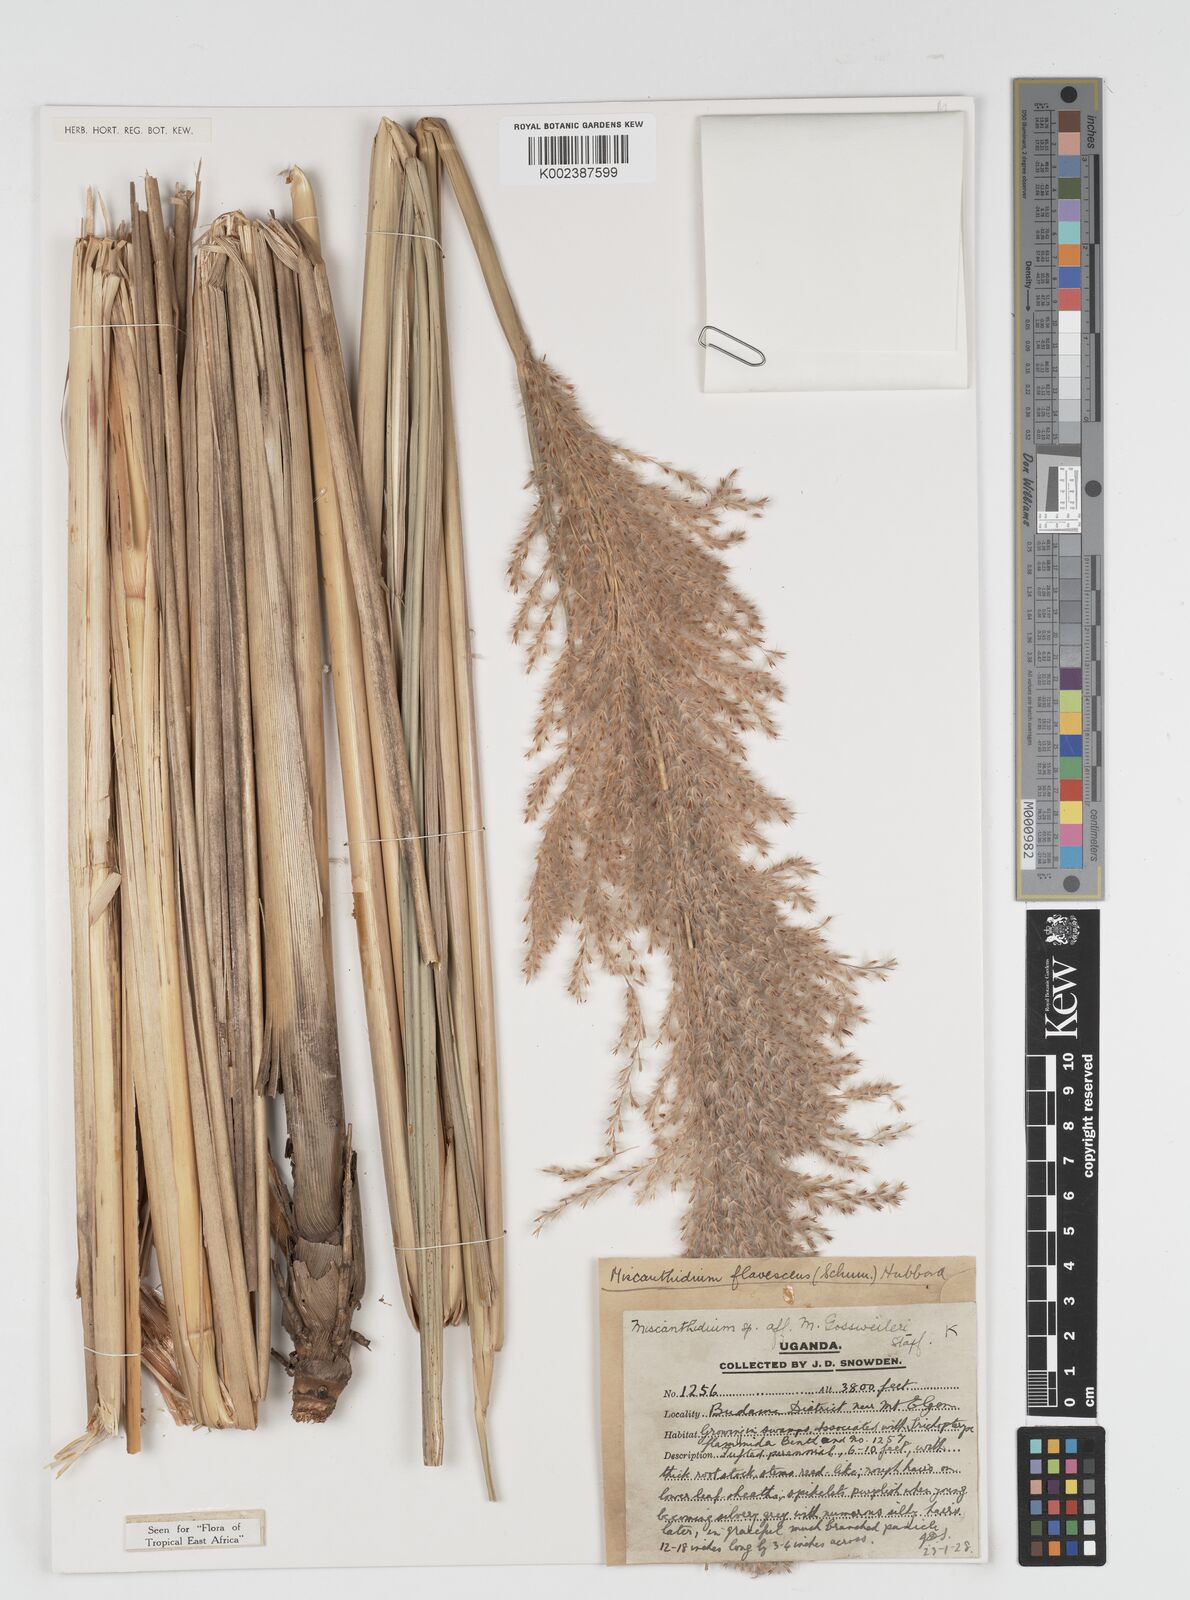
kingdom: Plantae
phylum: Tracheophyta
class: Liliopsida
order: Poales
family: Poaceae
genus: Miscanthidium
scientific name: Miscanthidium violaceum
